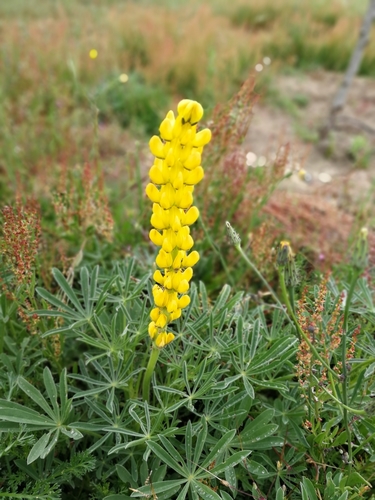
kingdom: Plantae
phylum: Tracheophyta
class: Magnoliopsida
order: Fabales
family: Fabaceae
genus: Lupinus
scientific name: Lupinus luteus
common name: European yellow lupine
